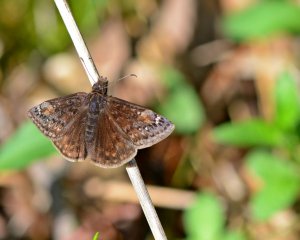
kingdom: Animalia
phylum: Arthropoda
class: Insecta
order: Lepidoptera
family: Hesperiidae
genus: Gesta
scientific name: Gesta
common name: Juvenal's Duskywing
